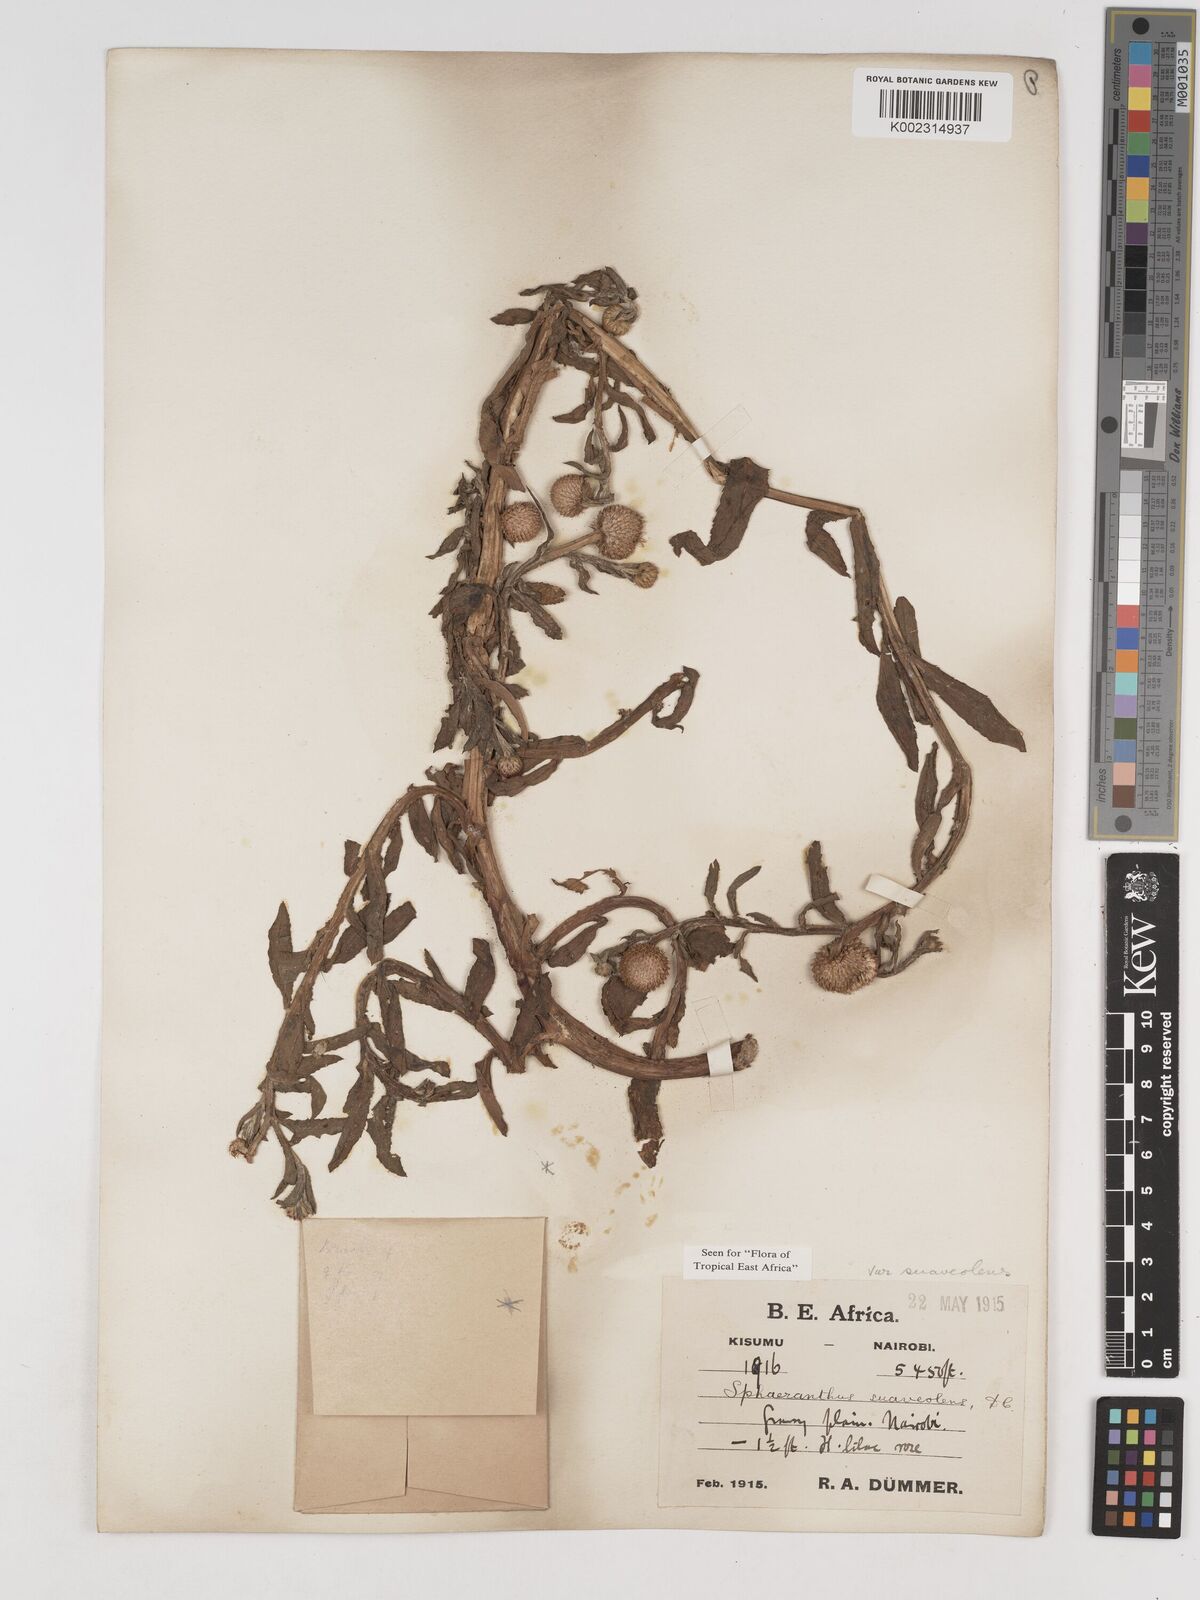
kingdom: Plantae
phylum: Tracheophyta
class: Magnoliopsida
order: Asterales
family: Asteraceae
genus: Sphaeranthus
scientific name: Sphaeranthus suaveolens
